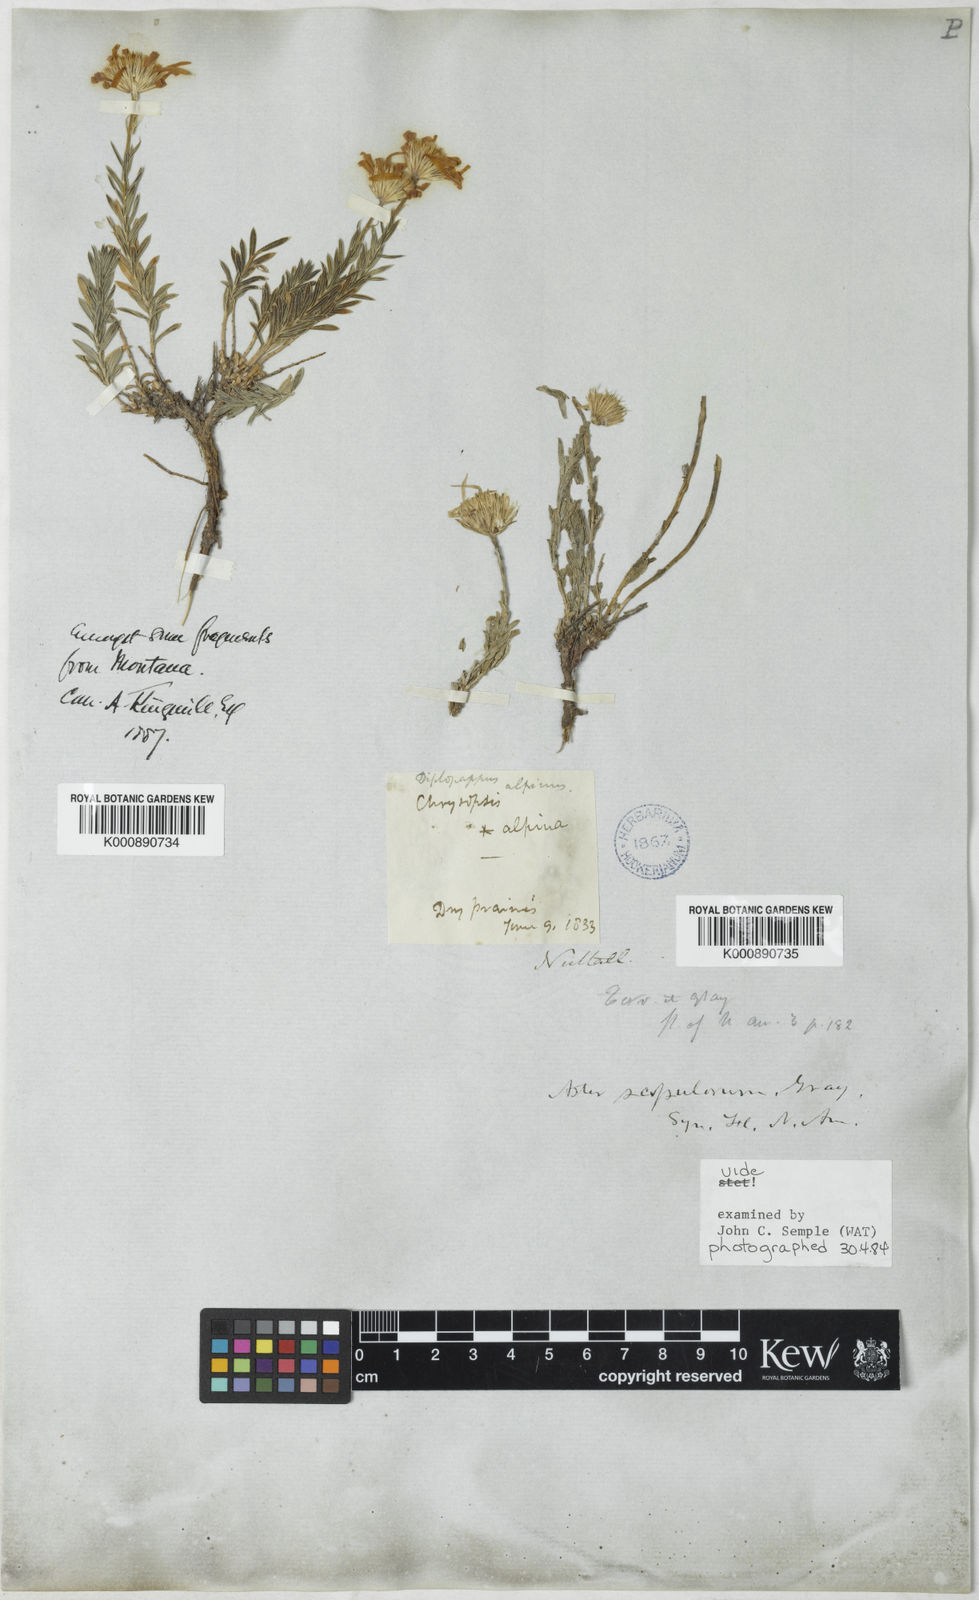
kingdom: Plantae
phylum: Tracheophyta
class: Magnoliopsida
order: Asterales
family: Asteraceae
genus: Ionactis
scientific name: Ionactis alpina
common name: Crag aster
